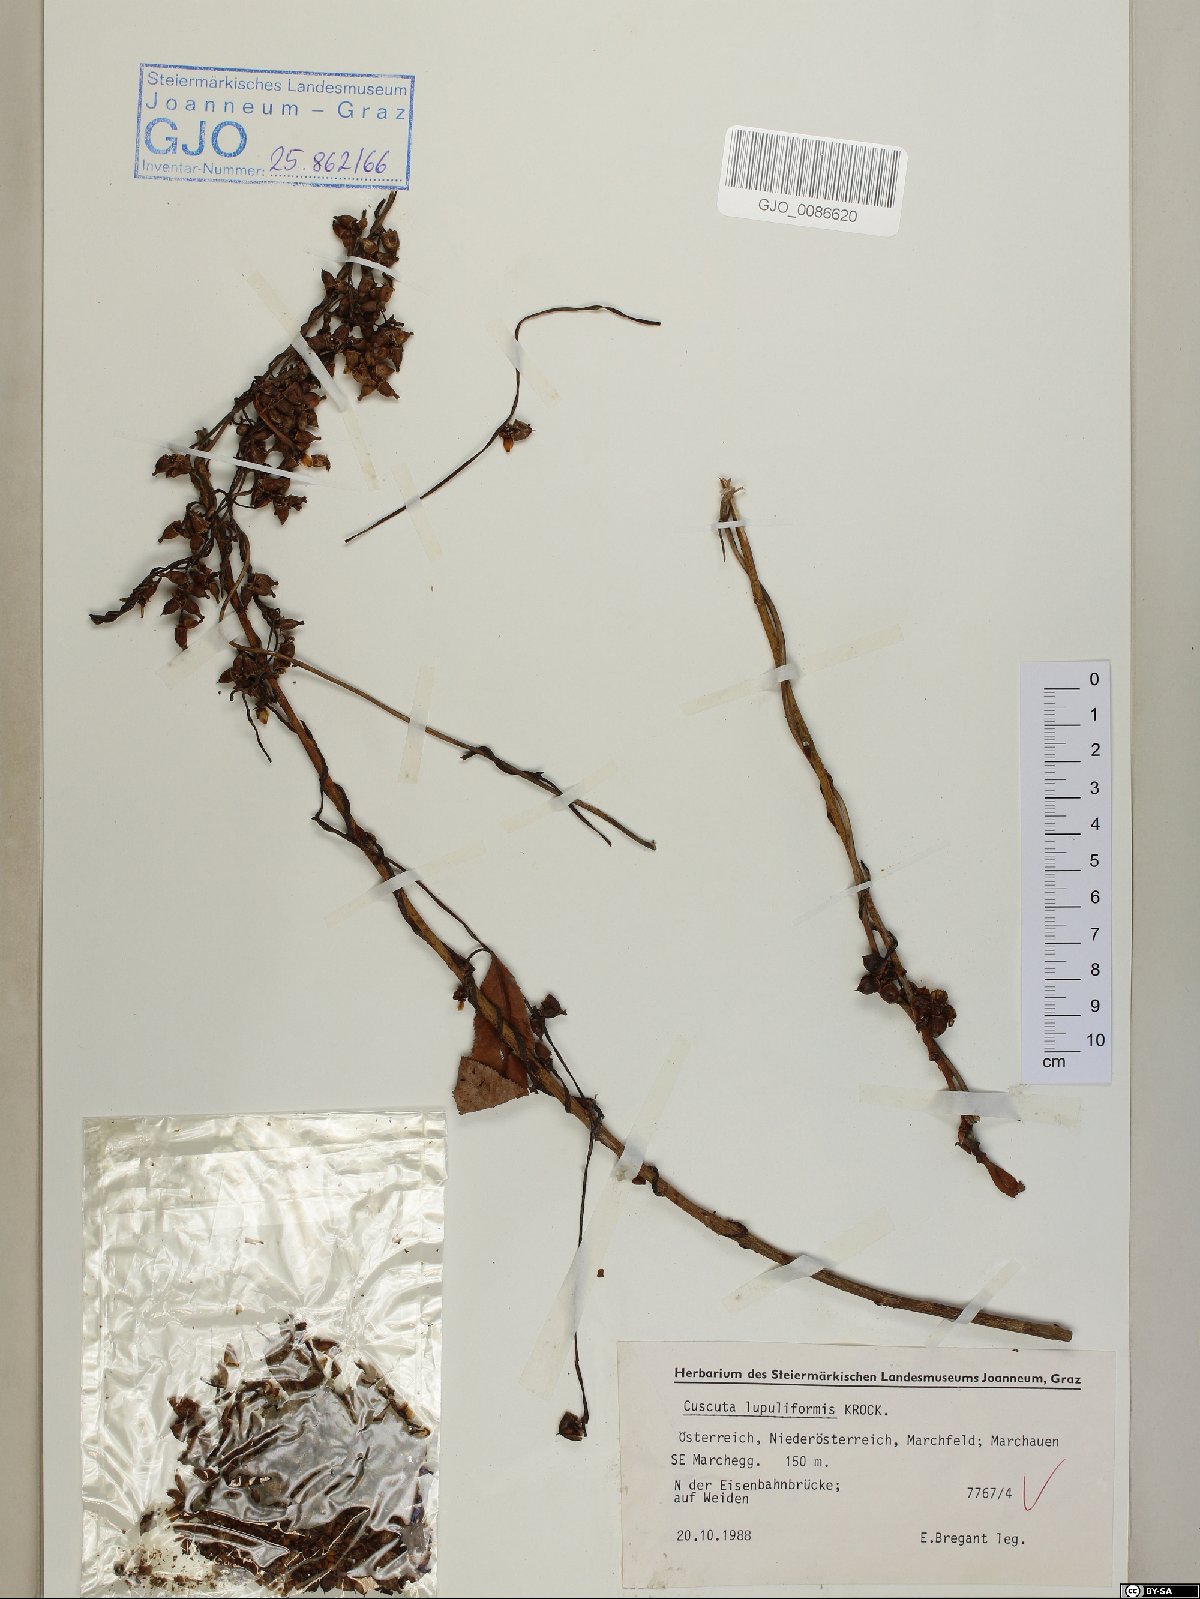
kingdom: Plantae
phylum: Tracheophyta
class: Magnoliopsida
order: Solanales
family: Convolvulaceae
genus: Cuscuta
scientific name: Cuscuta lupuliformis
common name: Hop dodder
